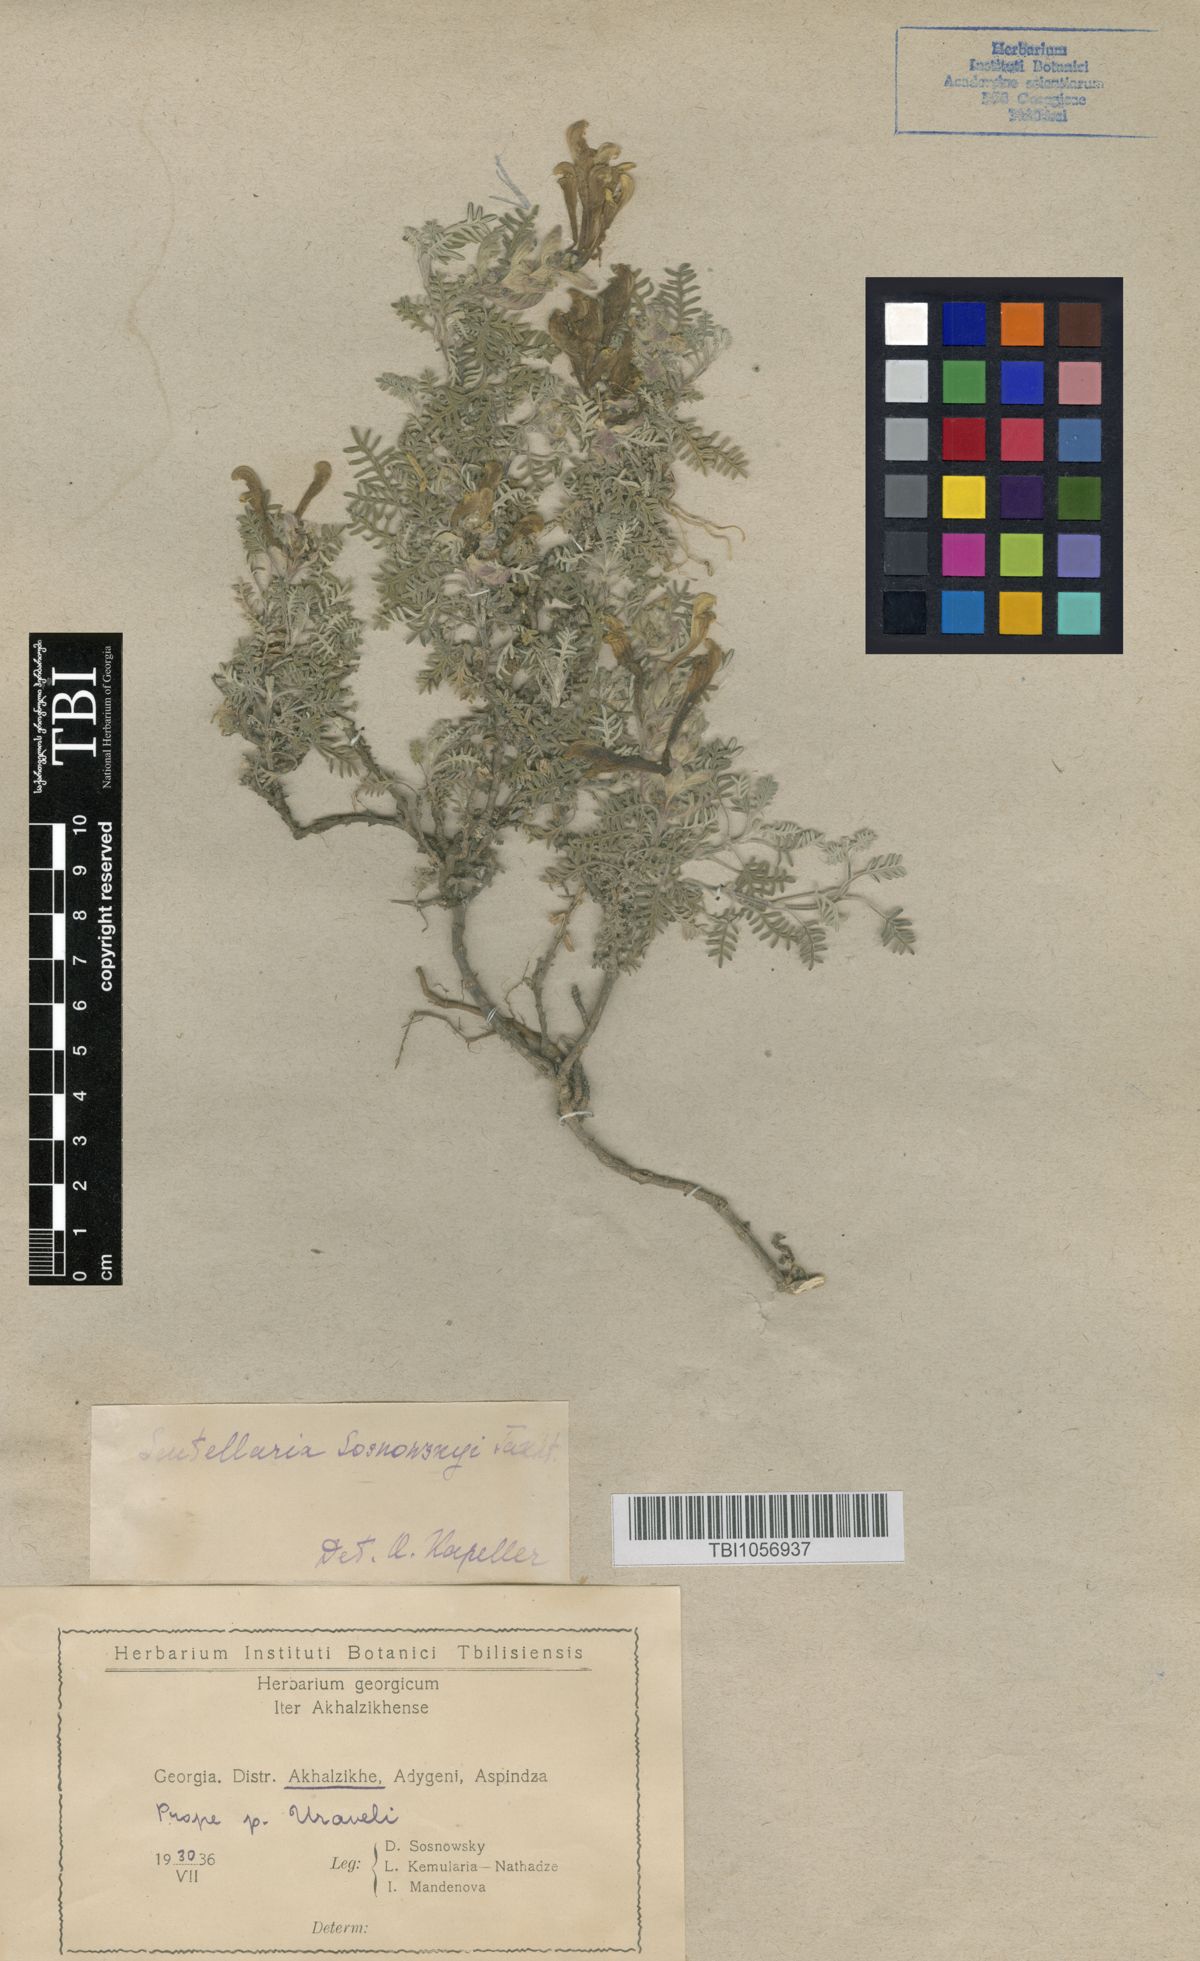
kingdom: Plantae
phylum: Tracheophyta
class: Magnoliopsida
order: Lamiales
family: Lamiaceae
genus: Scutellaria
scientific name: Scutellaria sosnowskyi
